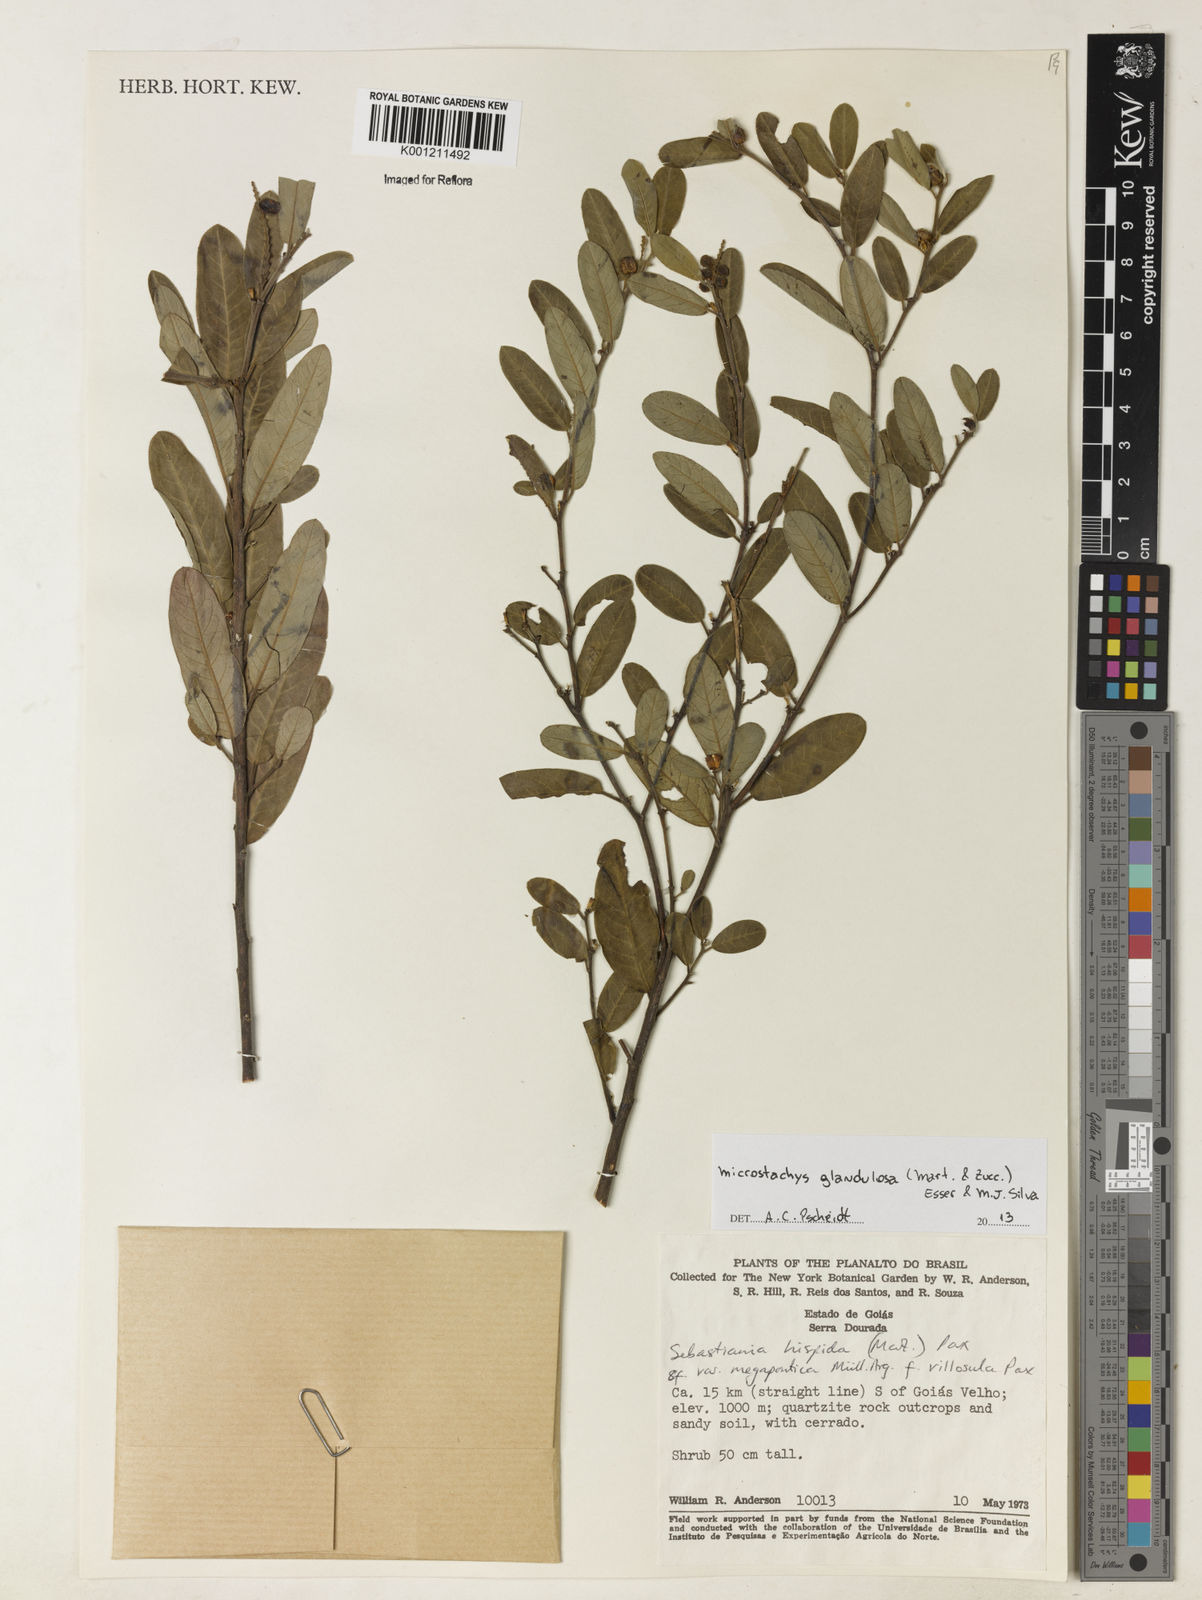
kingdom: Plantae
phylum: Tracheophyta
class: Magnoliopsida
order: Malpighiales
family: Euphorbiaceae
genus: Microstachys
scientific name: Microstachys glandulosa
